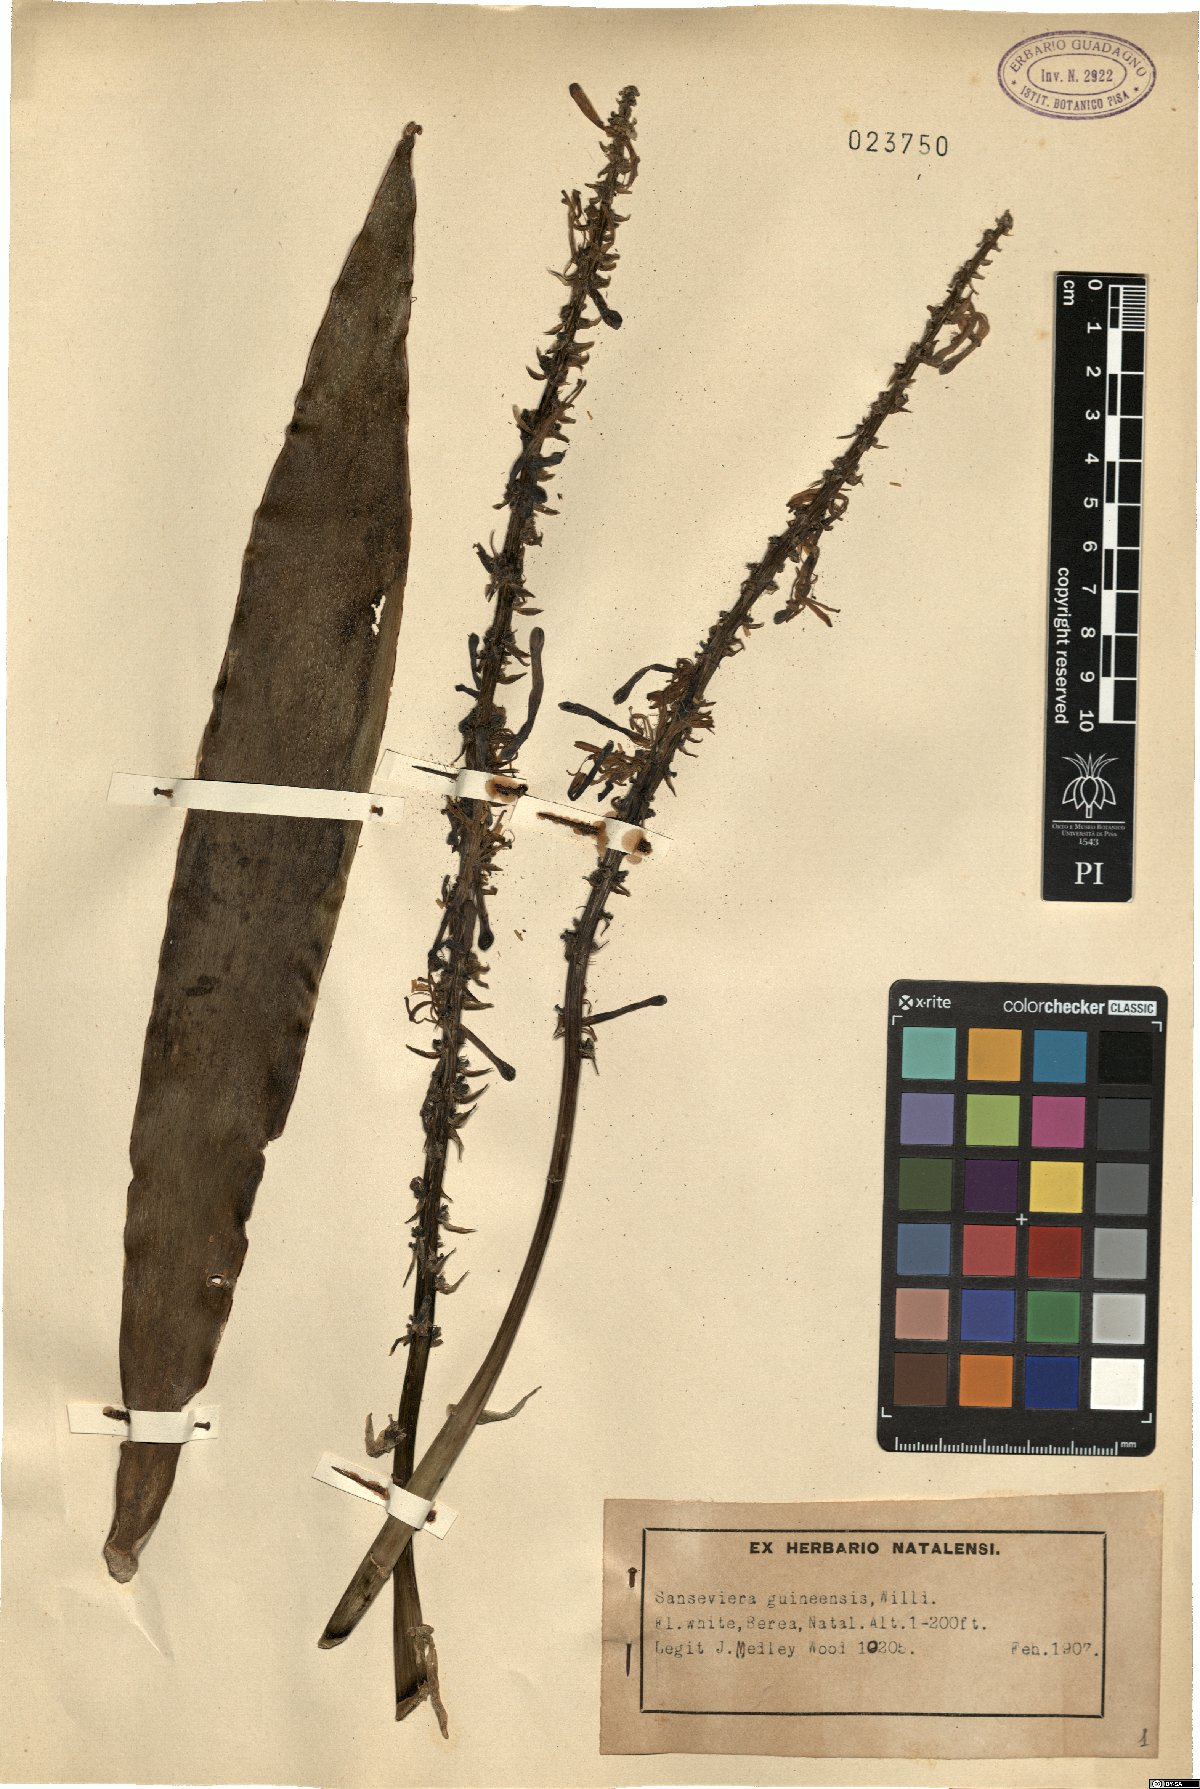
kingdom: Plantae
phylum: Tracheophyta
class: Liliopsida
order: Asparagales
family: Asparagaceae
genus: Dracaena
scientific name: Dracaena hyacinthoides
